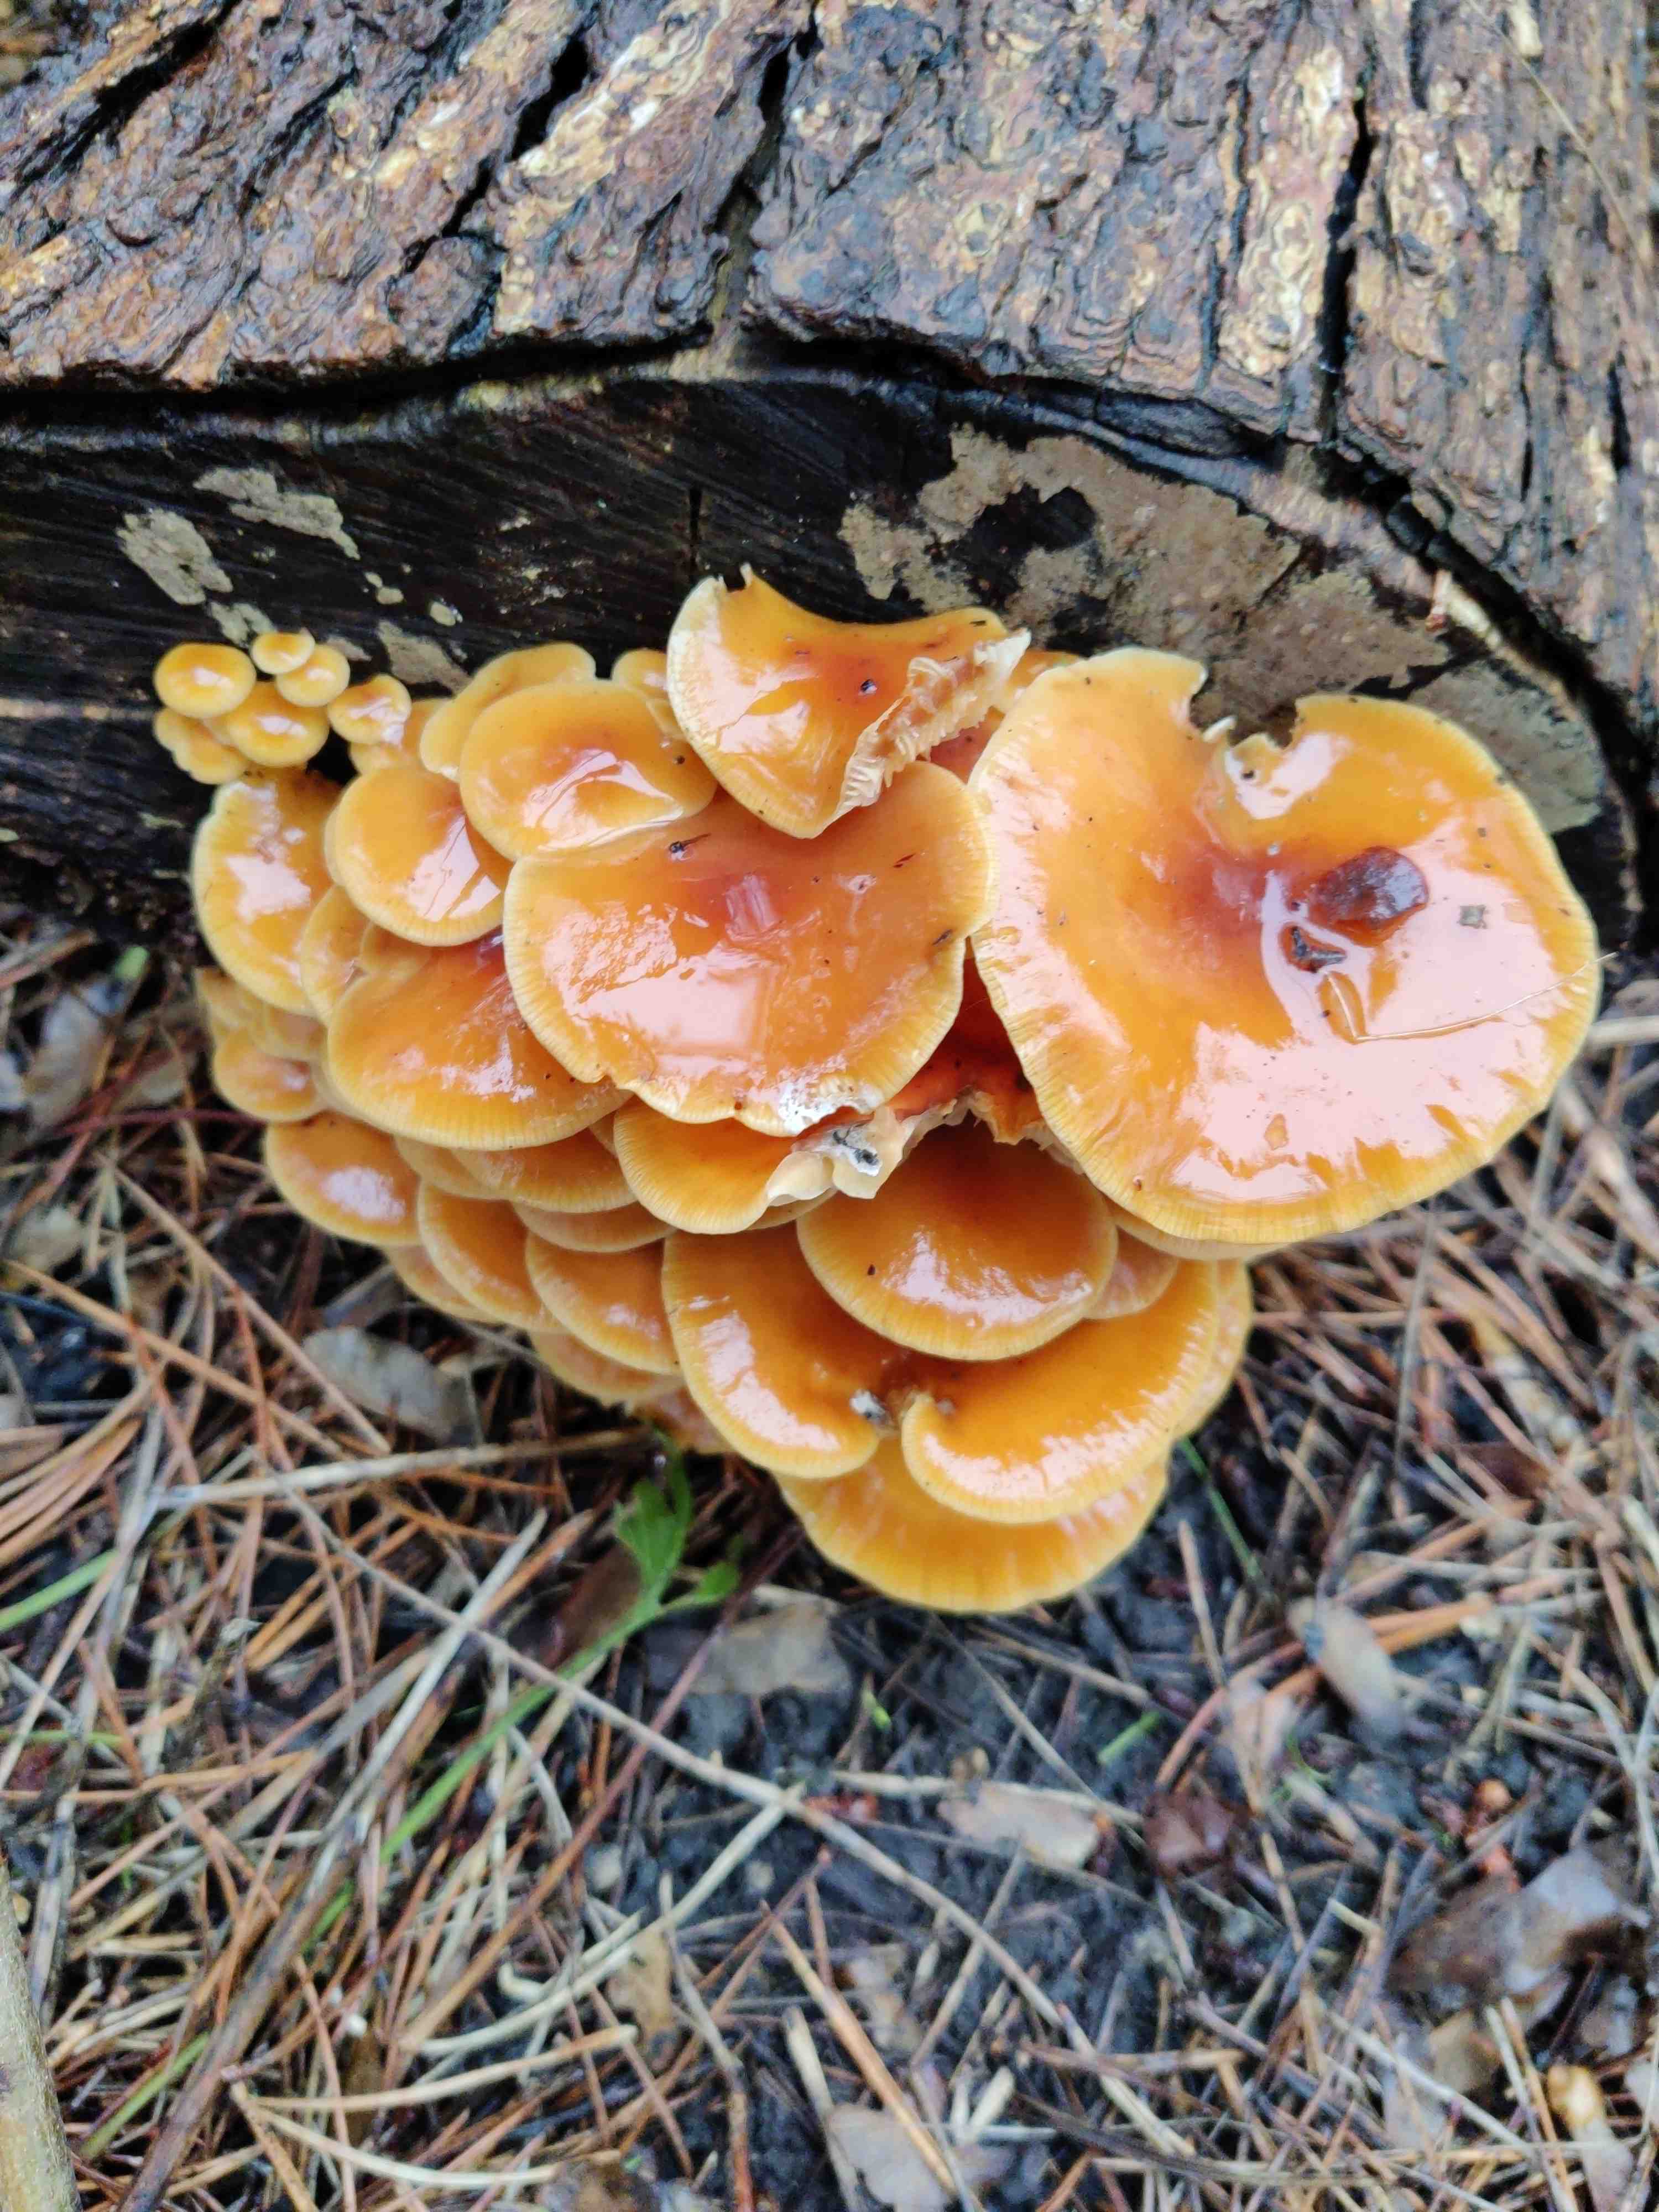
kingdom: Fungi
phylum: Basidiomycota
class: Agaricomycetes
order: Agaricales
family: Physalacriaceae
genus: Flammulina
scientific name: Flammulina velutipes
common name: gul fløjlsfod
